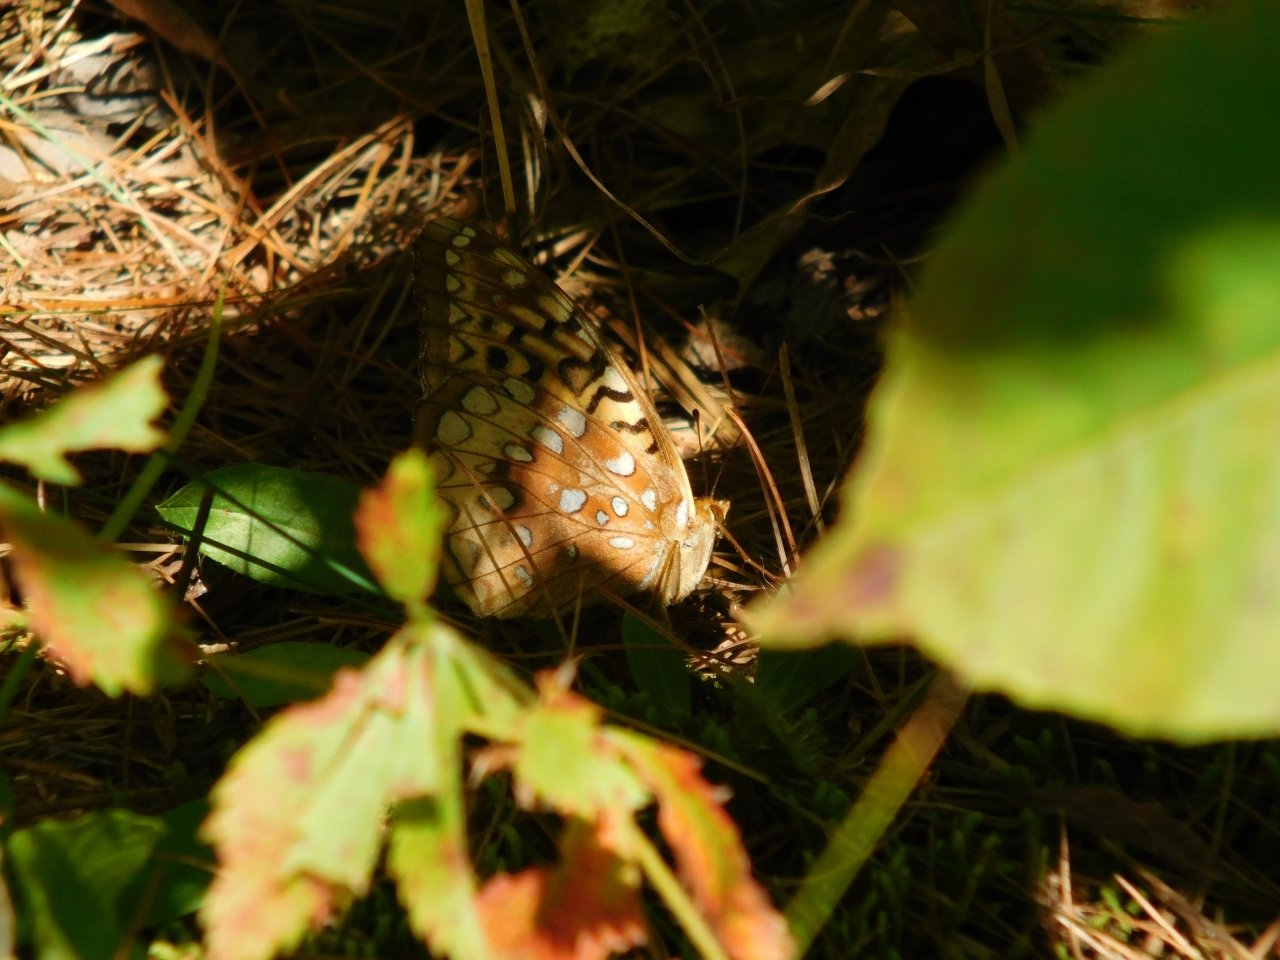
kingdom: Animalia
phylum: Arthropoda
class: Insecta
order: Lepidoptera
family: Nymphalidae
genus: Speyeria
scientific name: Speyeria cybele
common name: Great Spangled Fritillary
